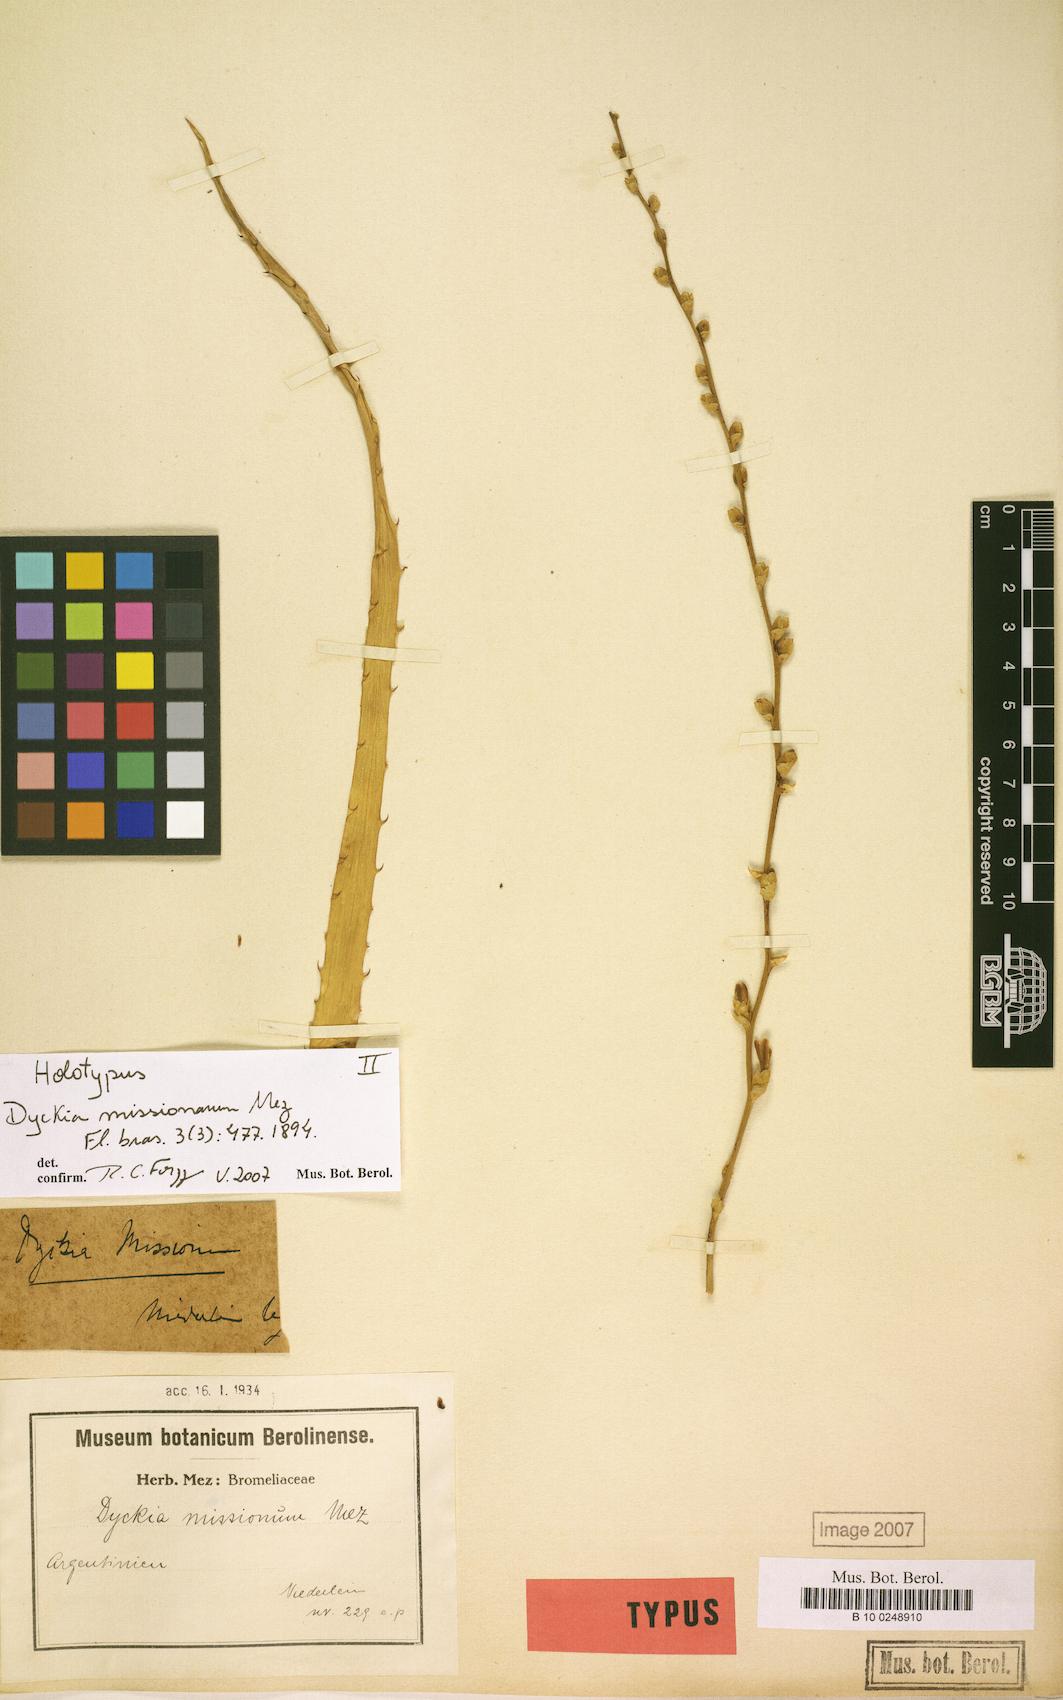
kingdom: Plantae
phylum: Tracheophyta
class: Liliopsida
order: Poales
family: Bromeliaceae
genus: Dyckia
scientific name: Dyckia niederleinii
